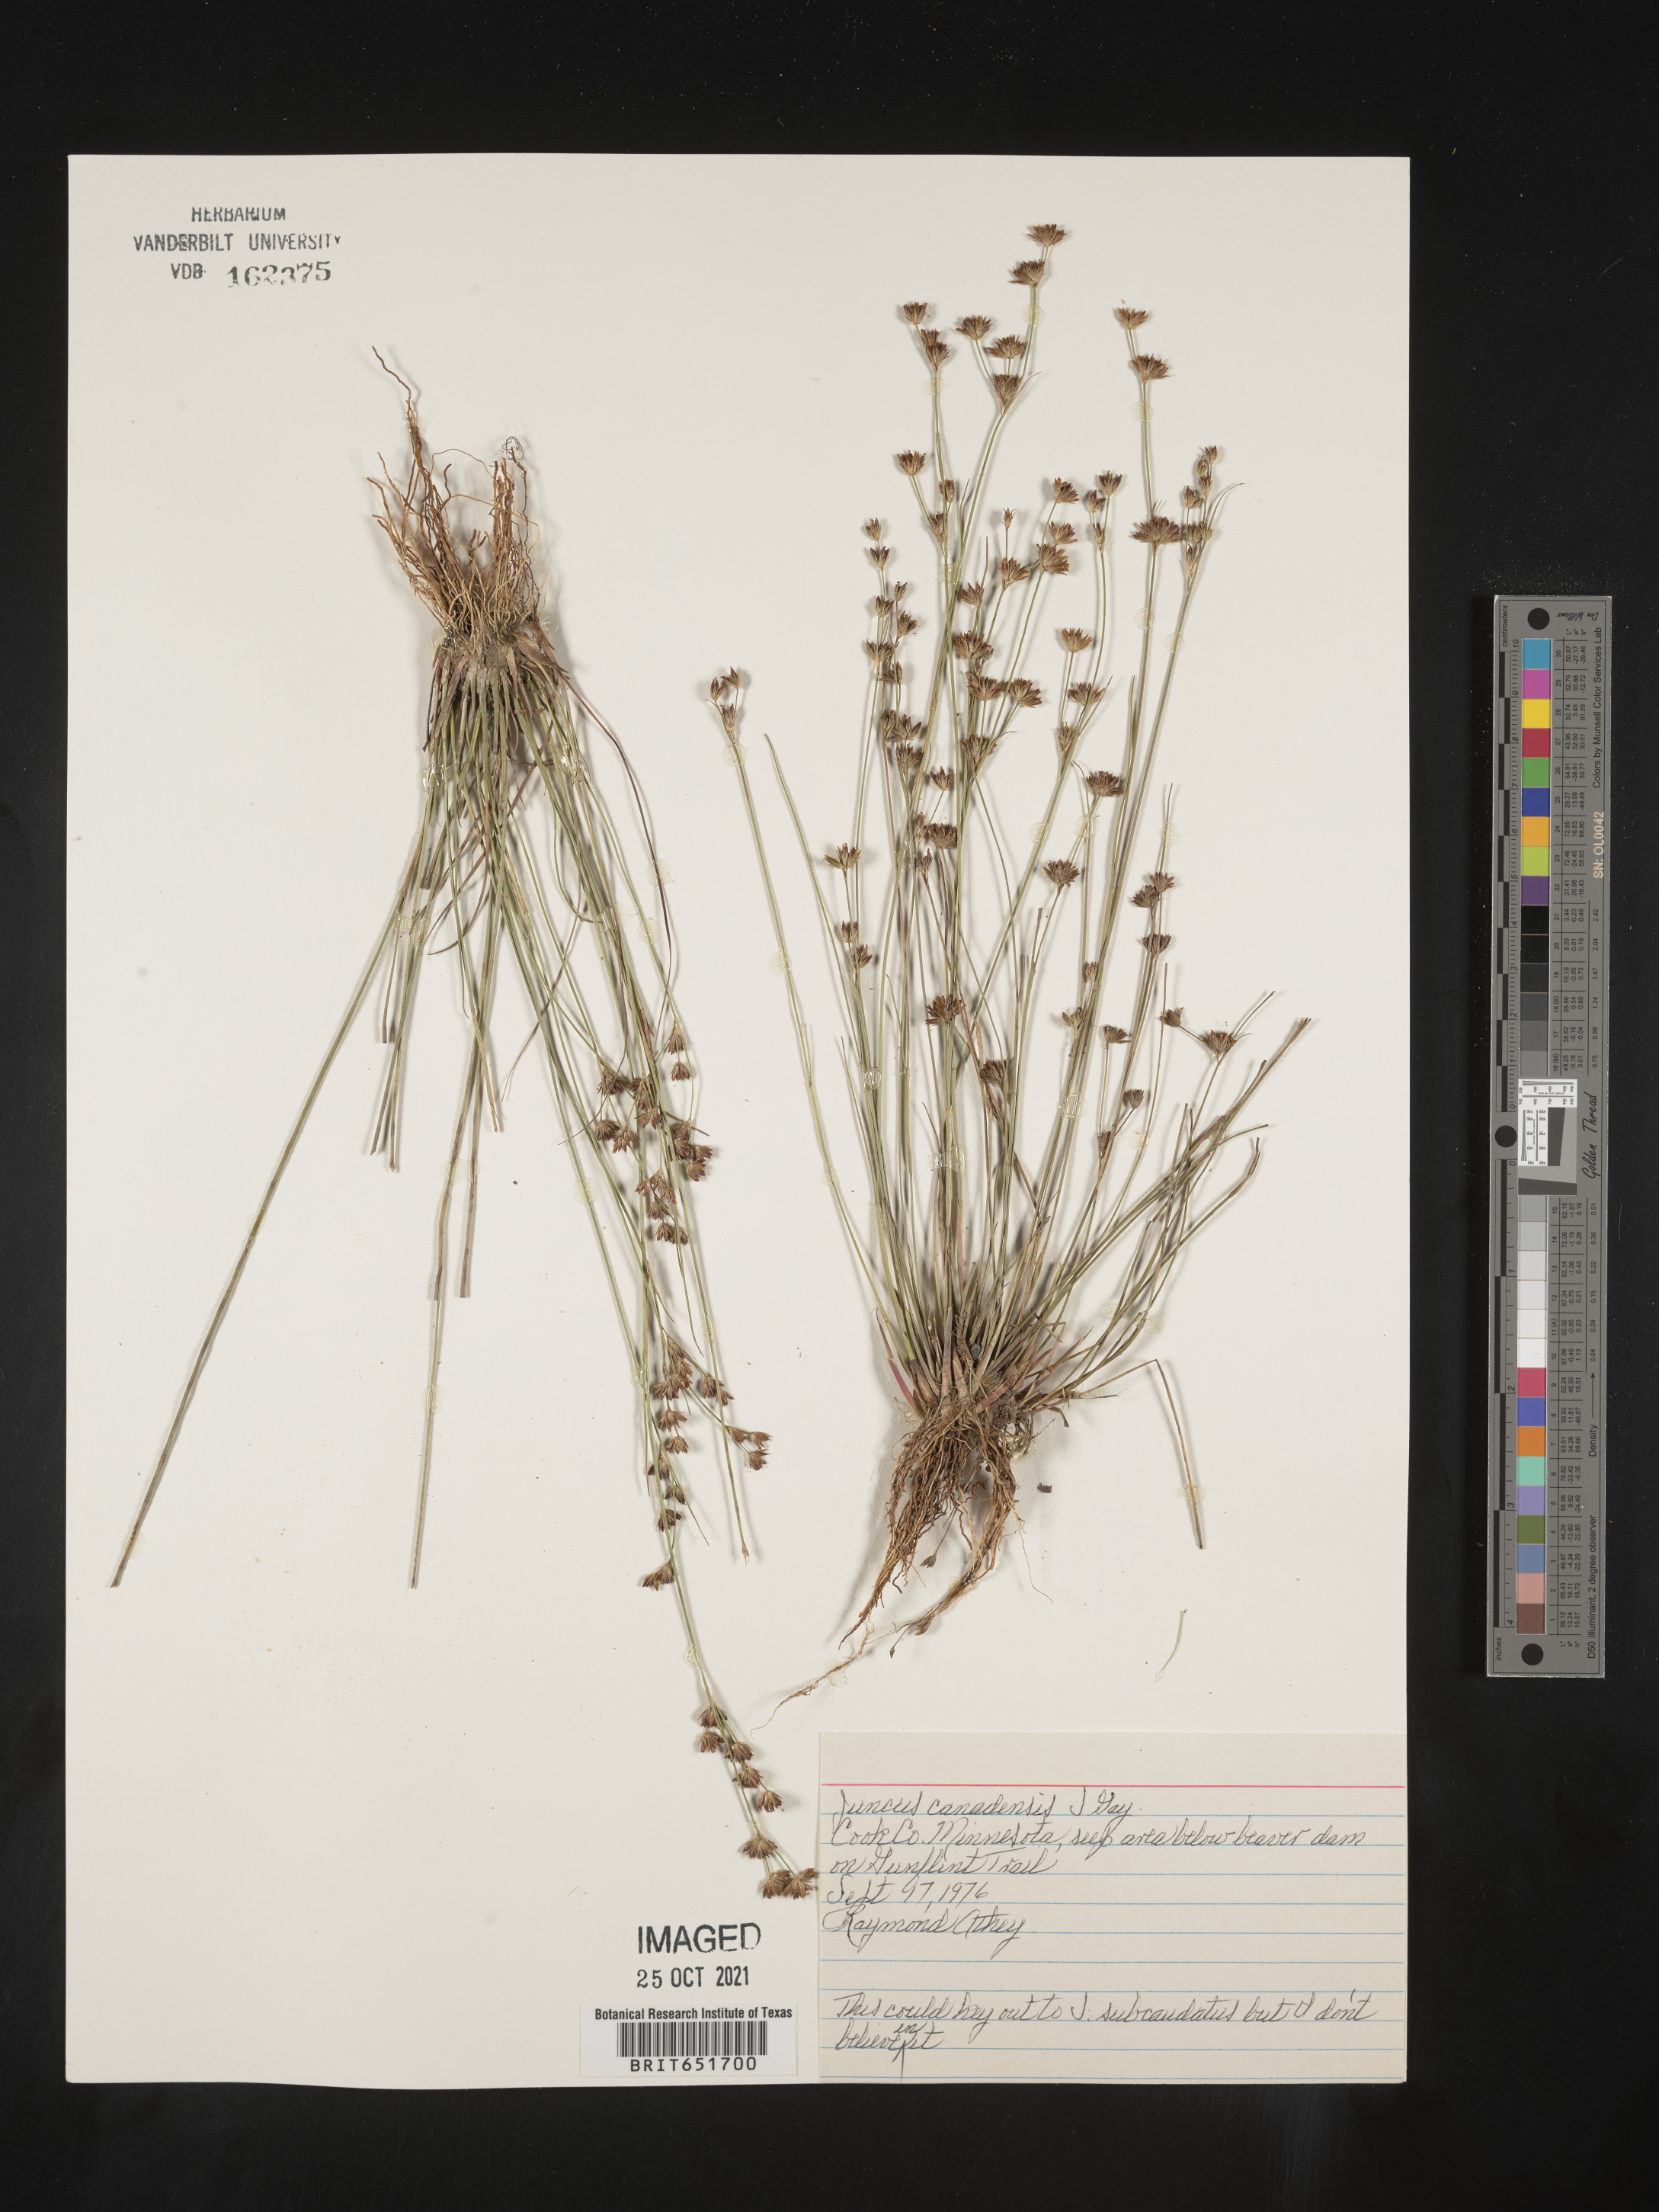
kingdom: Plantae
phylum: Tracheophyta
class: Liliopsida
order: Poales
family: Juncaceae
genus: Juncus
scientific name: Juncus canadensis
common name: Canada rush
